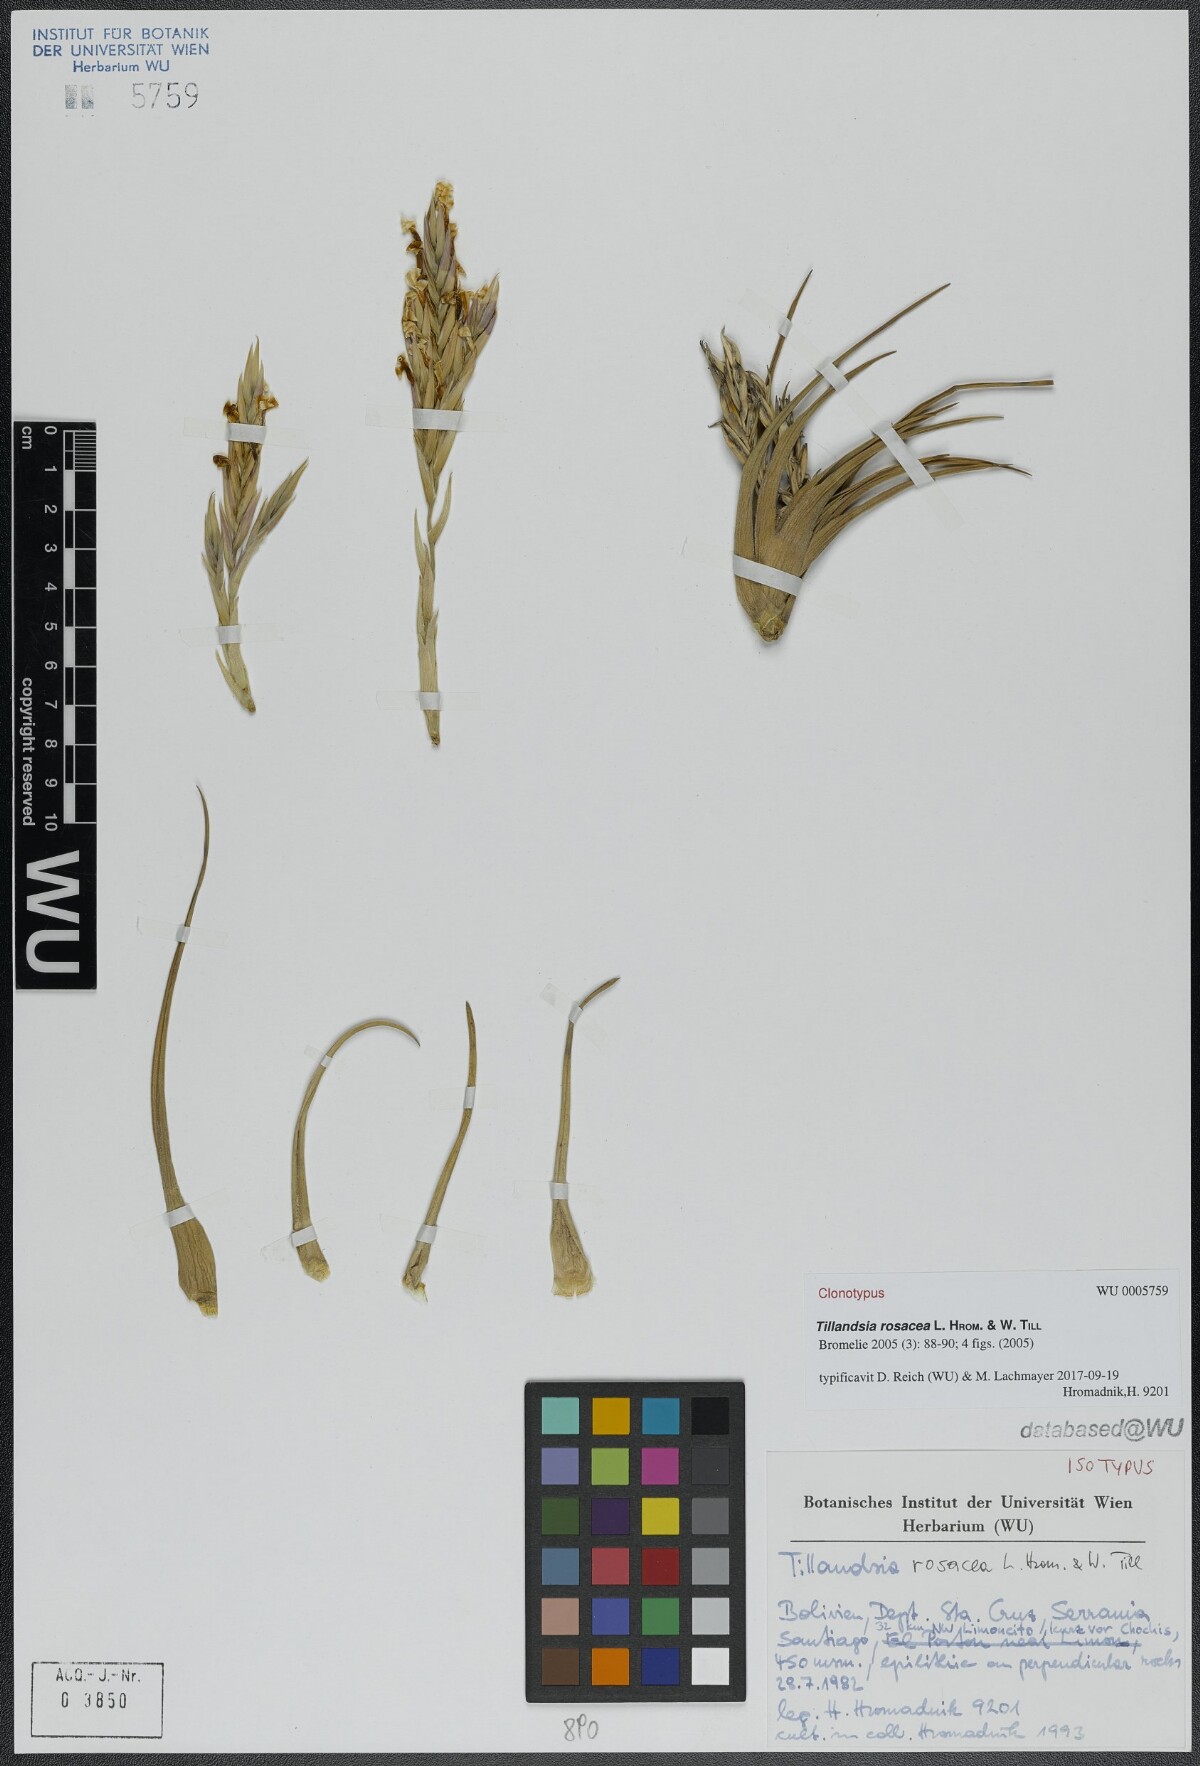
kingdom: Plantae
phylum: Tracheophyta
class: Liliopsida
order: Poales
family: Bromeliaceae
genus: Tillandsia
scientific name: Tillandsia rosacea
